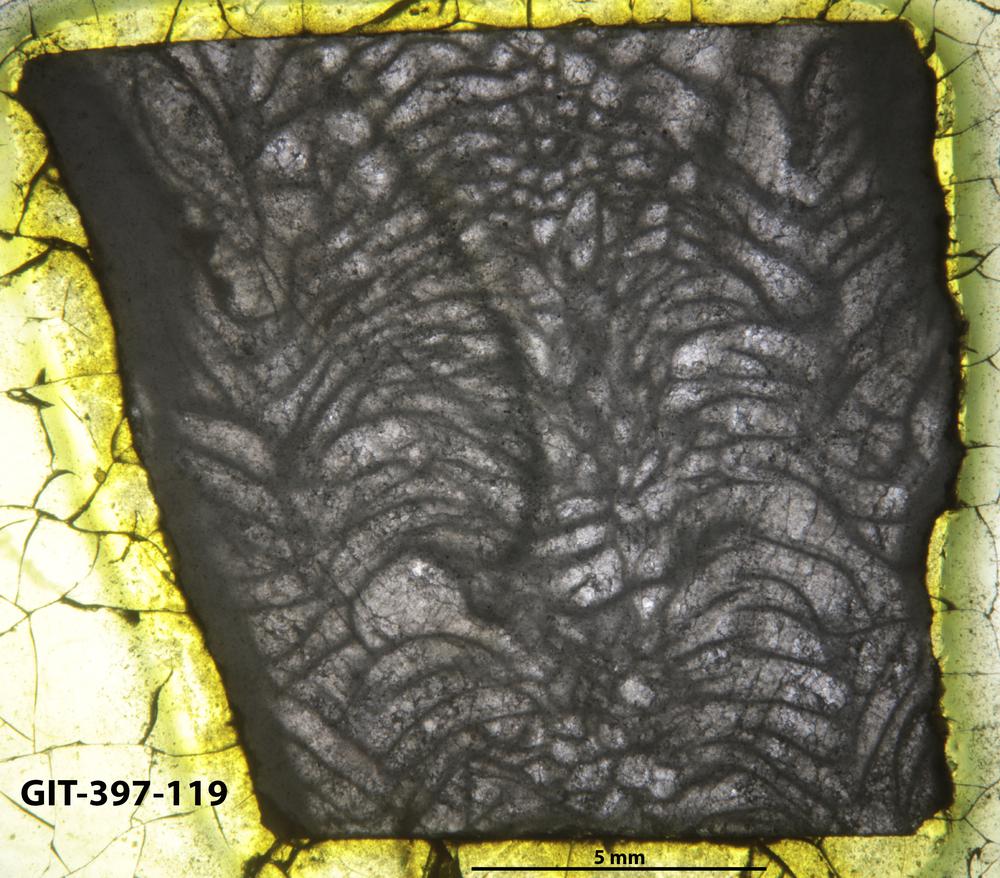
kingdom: Animalia
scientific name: Animalia
